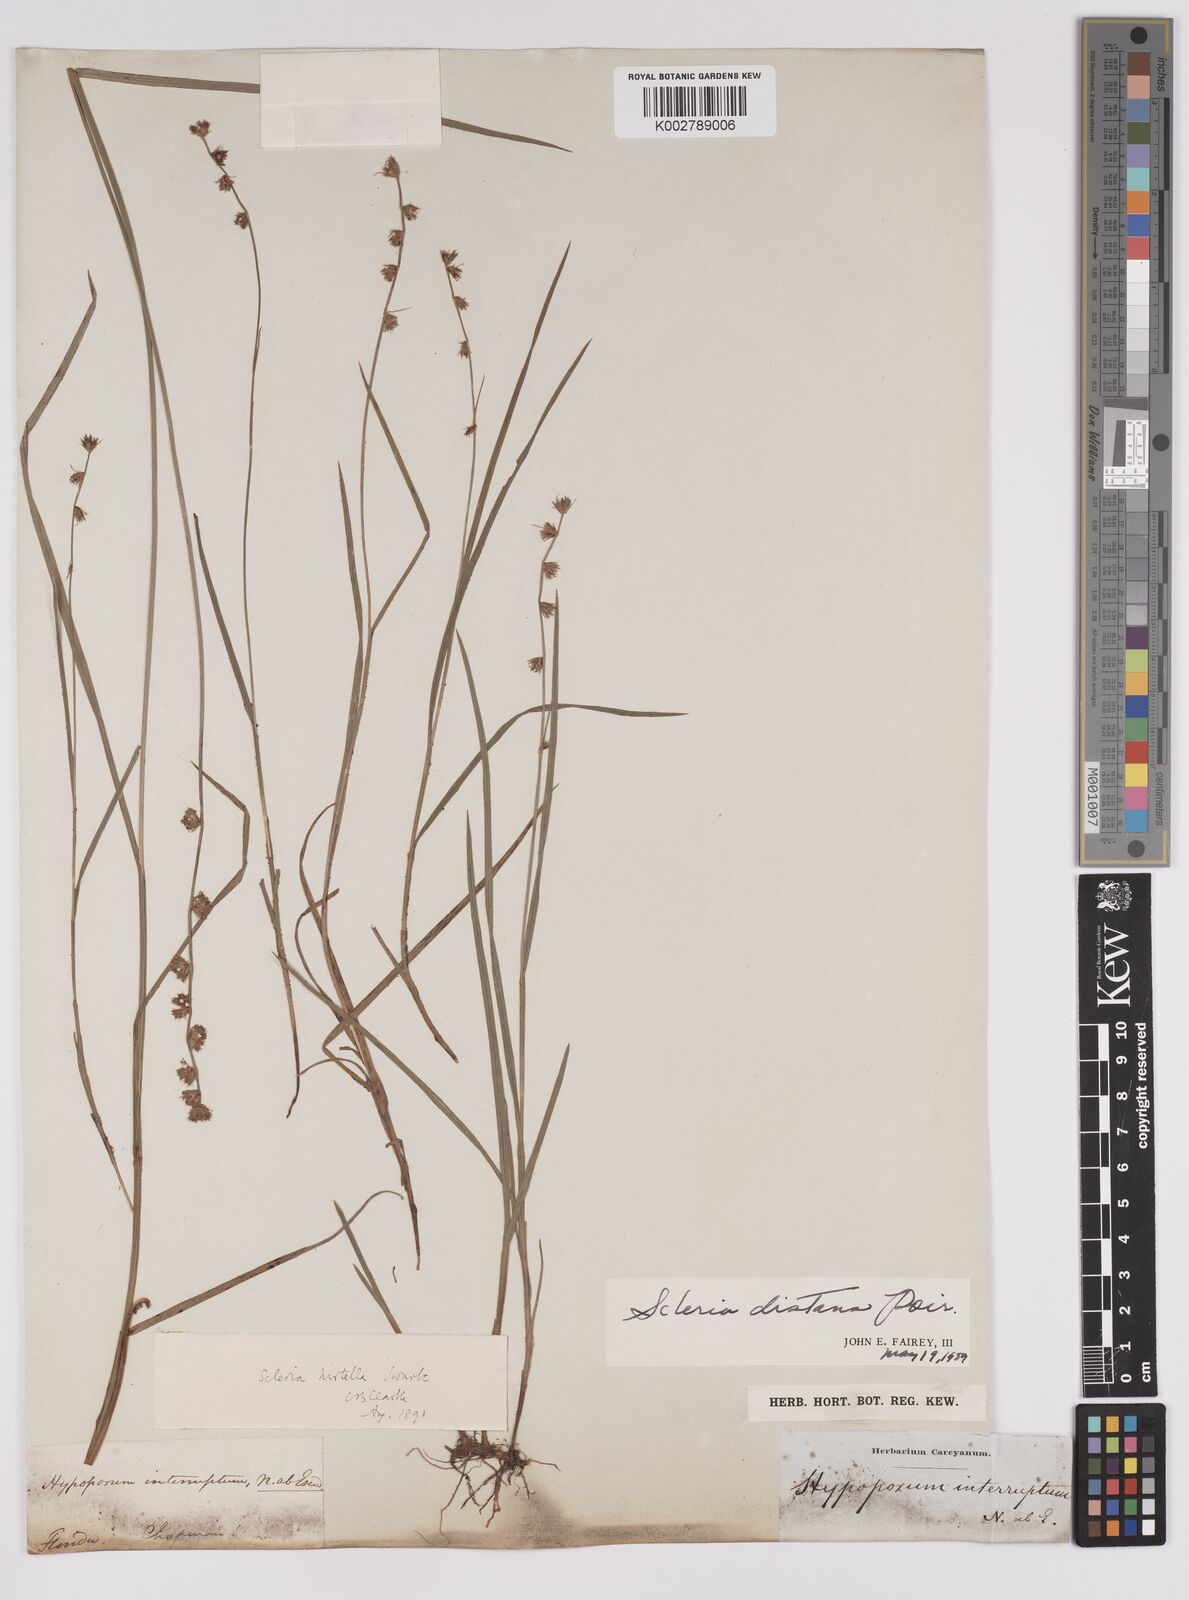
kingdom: Plantae
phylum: Tracheophyta
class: Liliopsida
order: Poales
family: Cyperaceae
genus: Scleria
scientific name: Scleria distans
